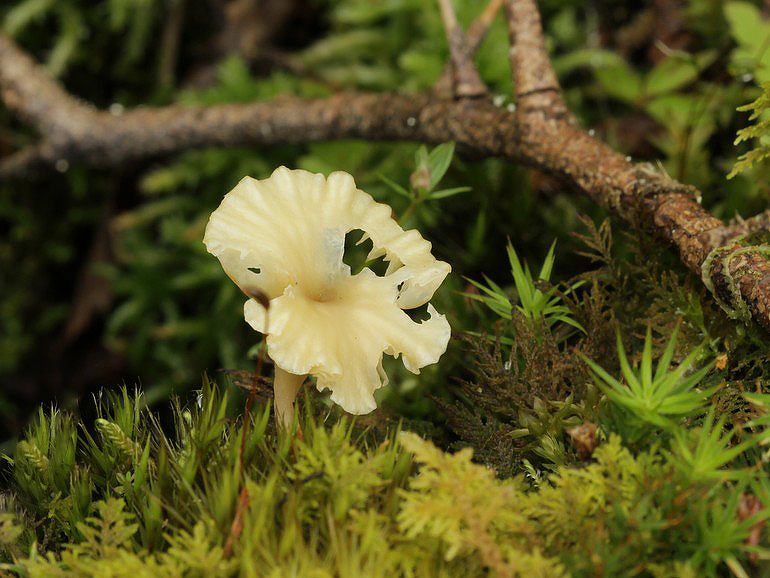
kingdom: Fungi
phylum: Basidiomycota
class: Agaricomycetes
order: Agaricales
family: Hygrophoraceae
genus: Lichenomphalia
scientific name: Lichenomphalia umbellifera
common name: tørve-lavhat
